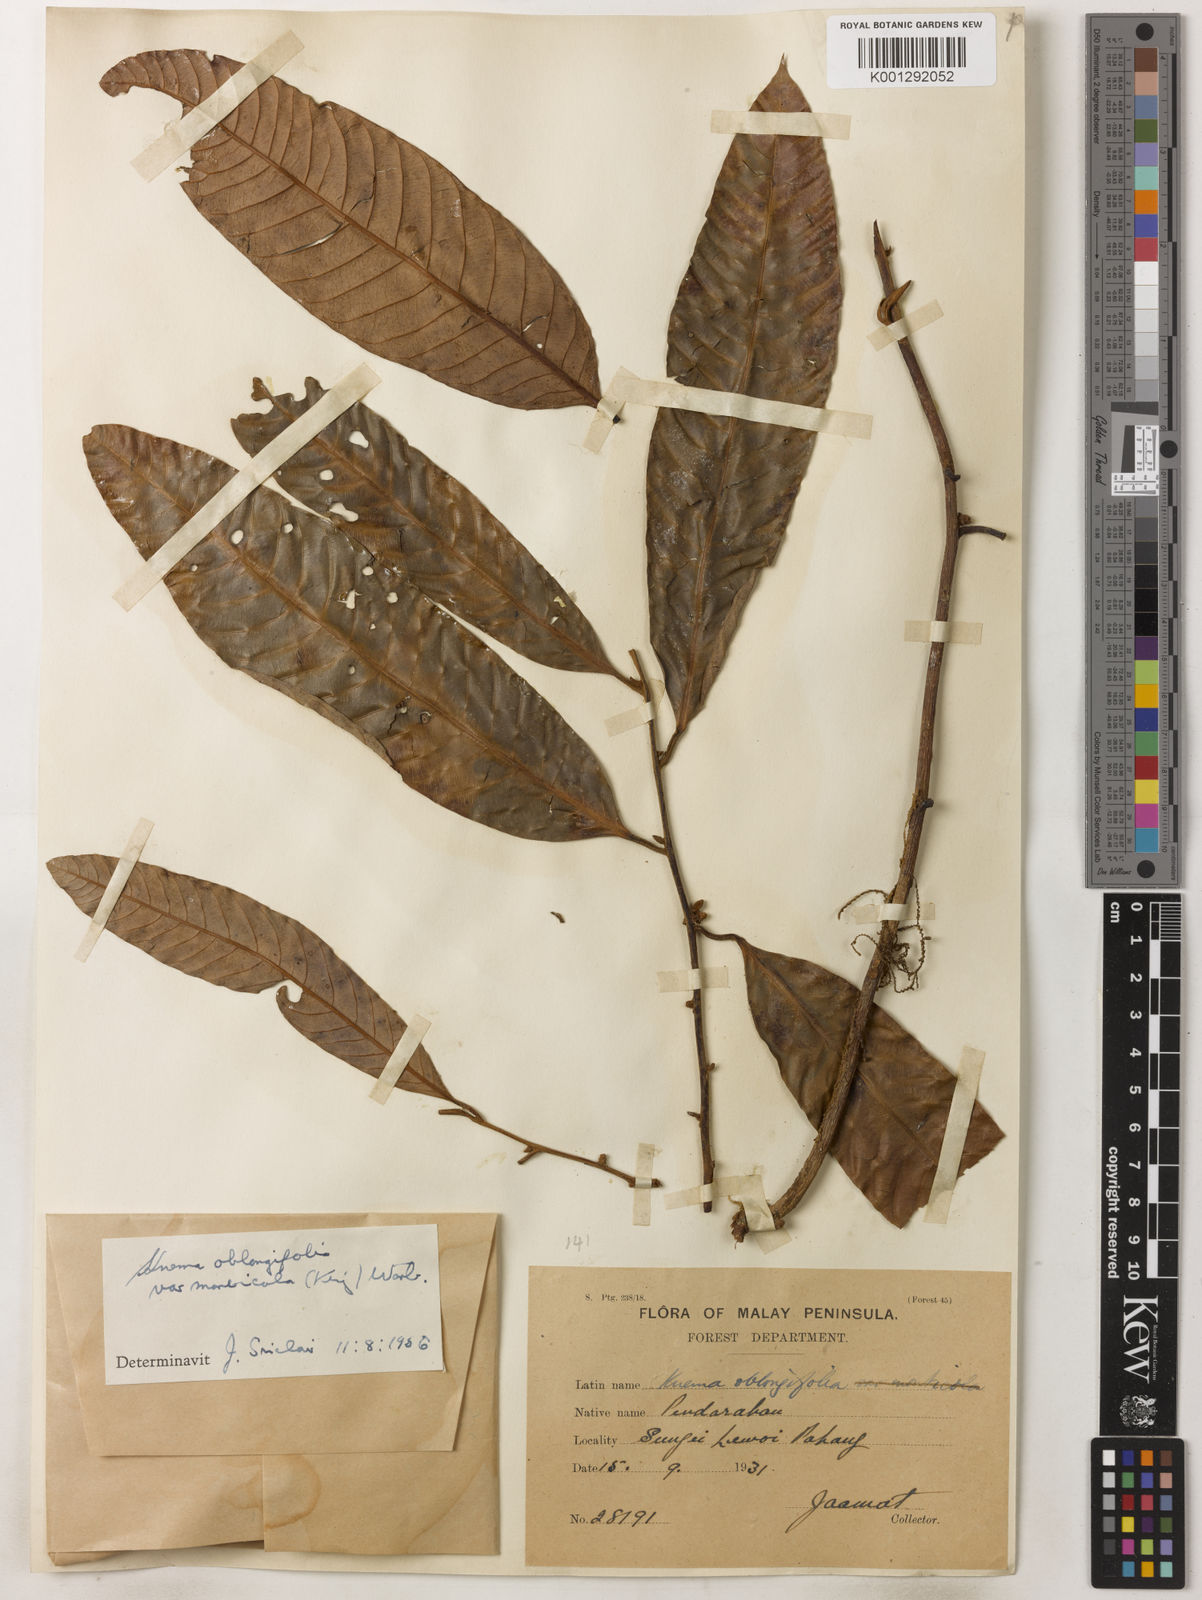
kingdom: Plantae
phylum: Tracheophyta
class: Magnoliopsida
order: Magnoliales
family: Myristicaceae
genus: Knema
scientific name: Knema
